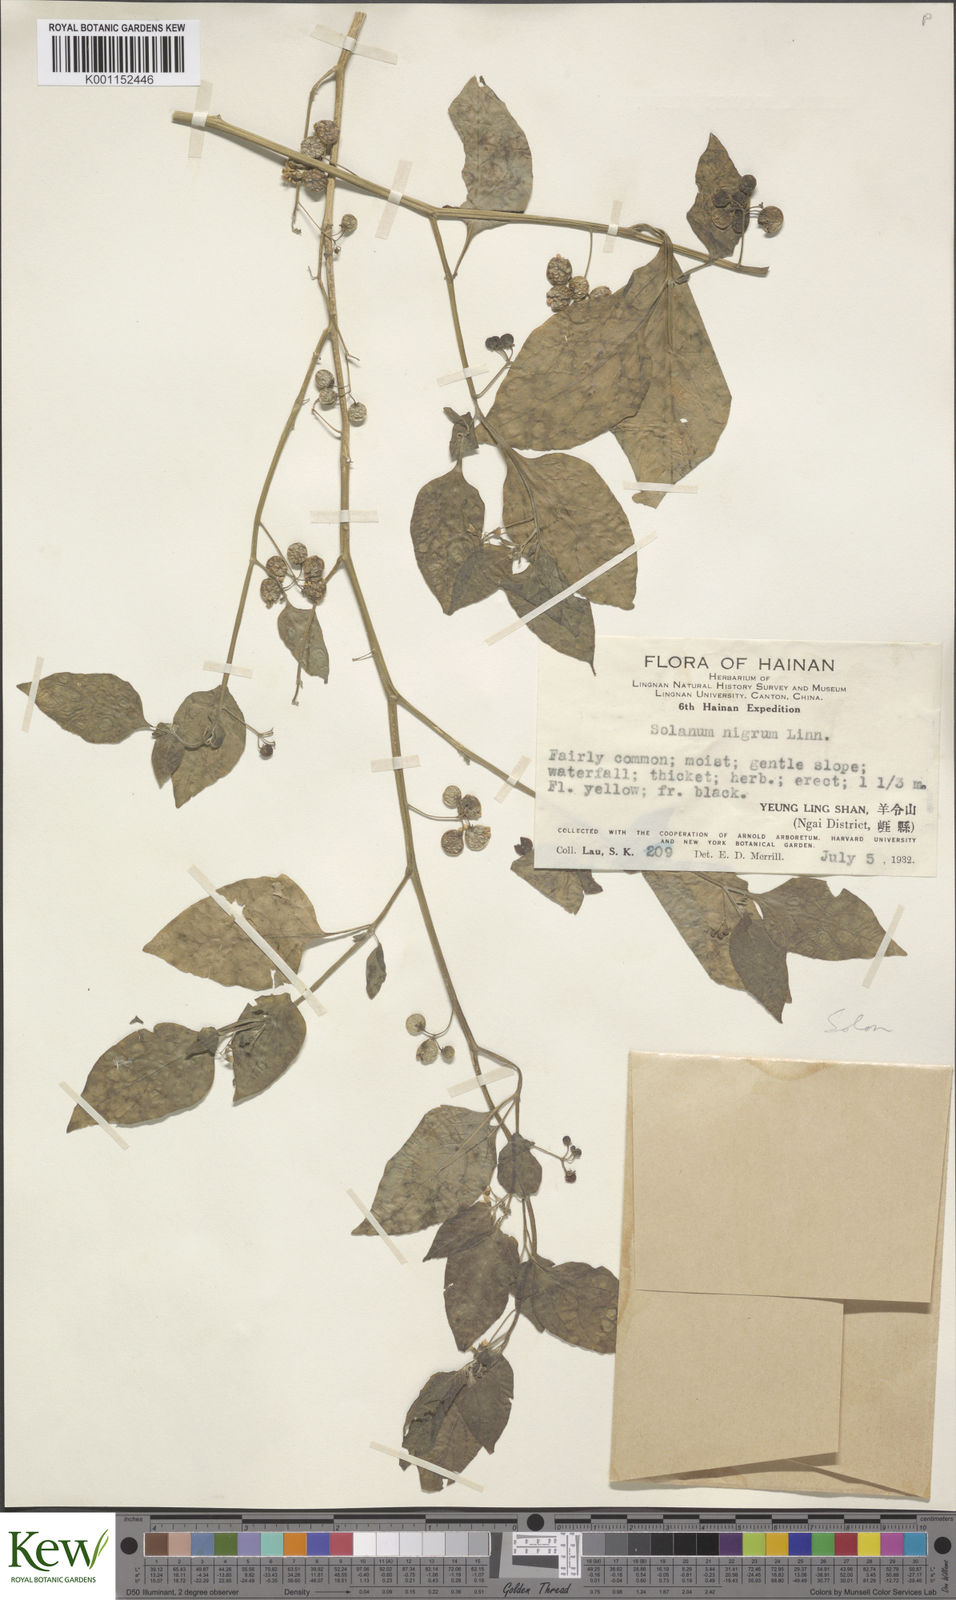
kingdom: Plantae
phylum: Tracheophyta
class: Magnoliopsida
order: Solanales
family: Solanaceae
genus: Solanum
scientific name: Solanum americanum
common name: American black nightshade
